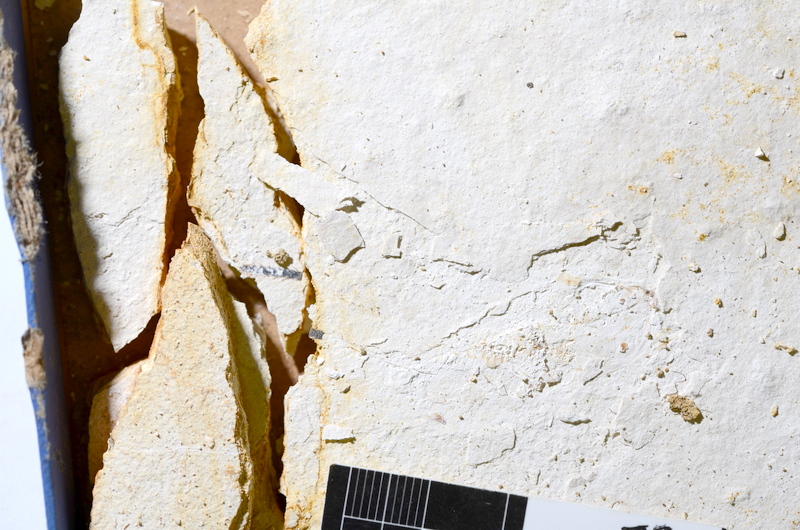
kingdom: Animalia
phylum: Chordata
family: Ascalaboidae
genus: Ebertichthys
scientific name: Ebertichthys ettlingensis
